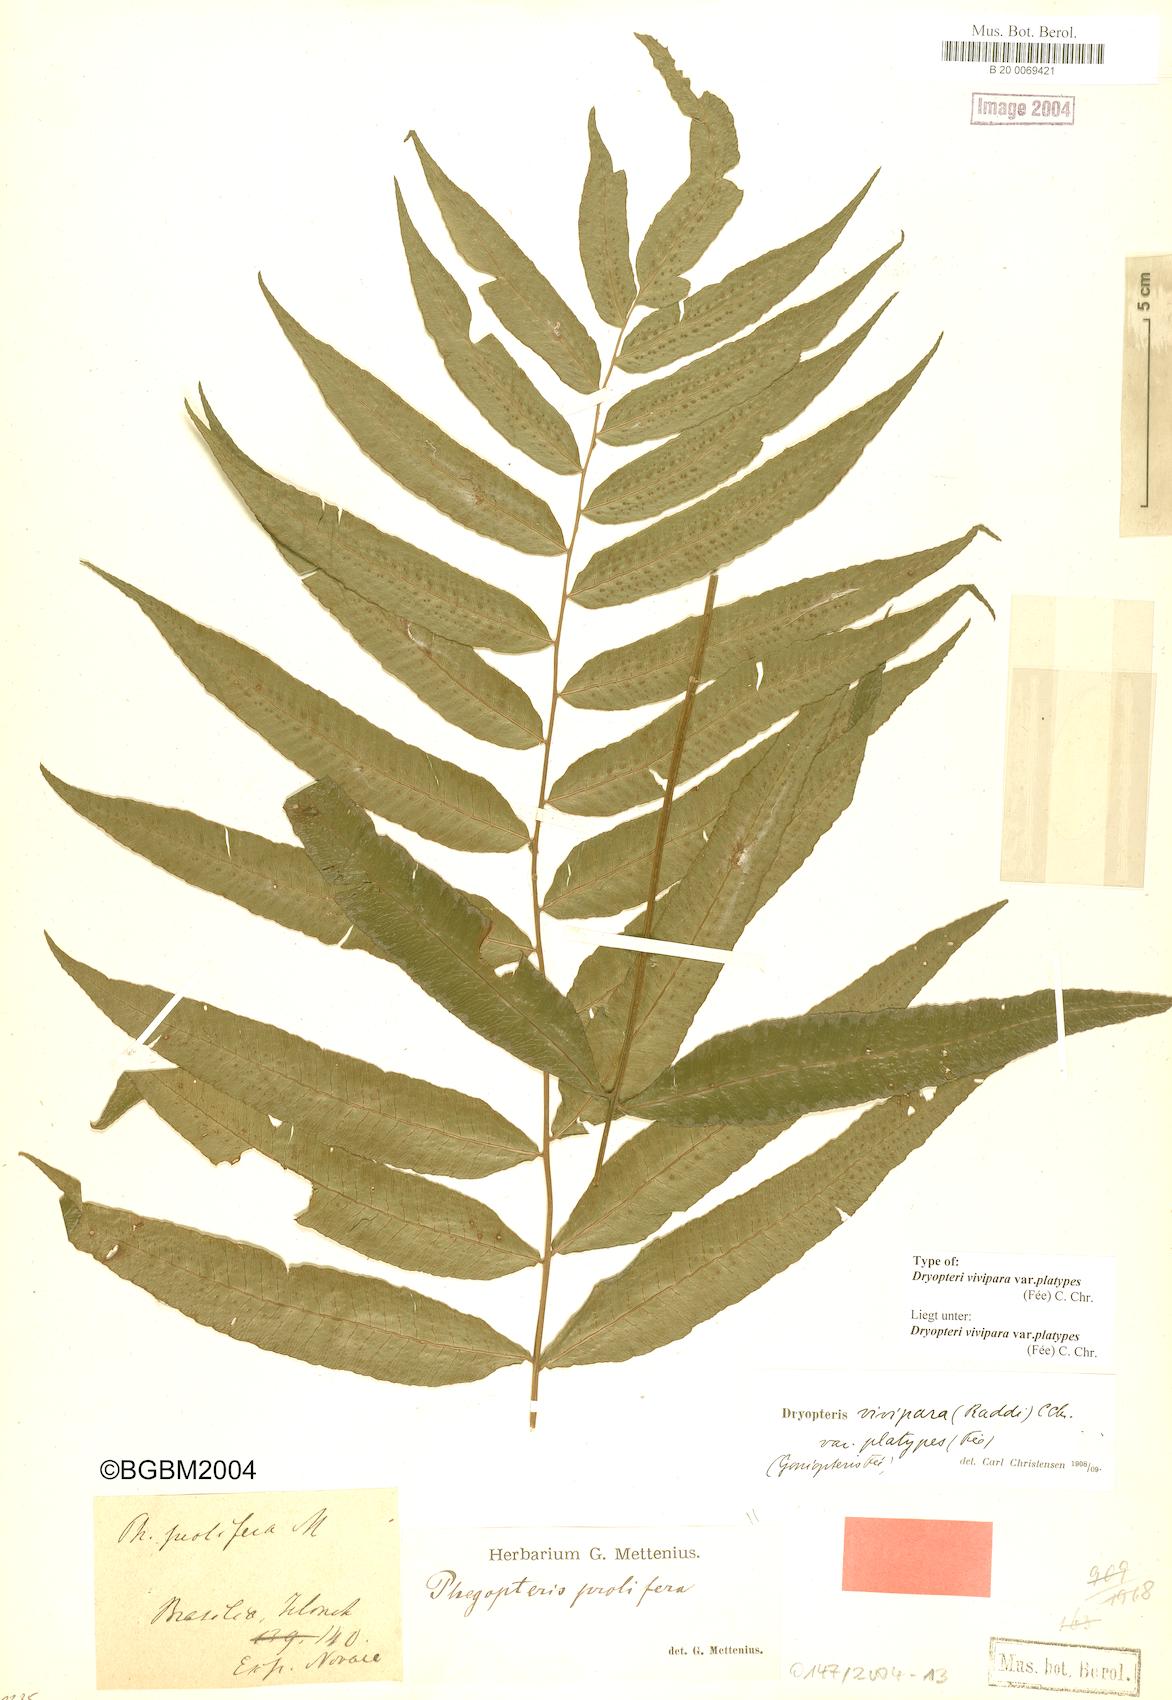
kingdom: Plantae
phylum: Tracheophyta
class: Polypodiopsida
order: Polypodiales
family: Thelypteridaceae
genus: Goniopteris
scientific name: Goniopteris platypes
